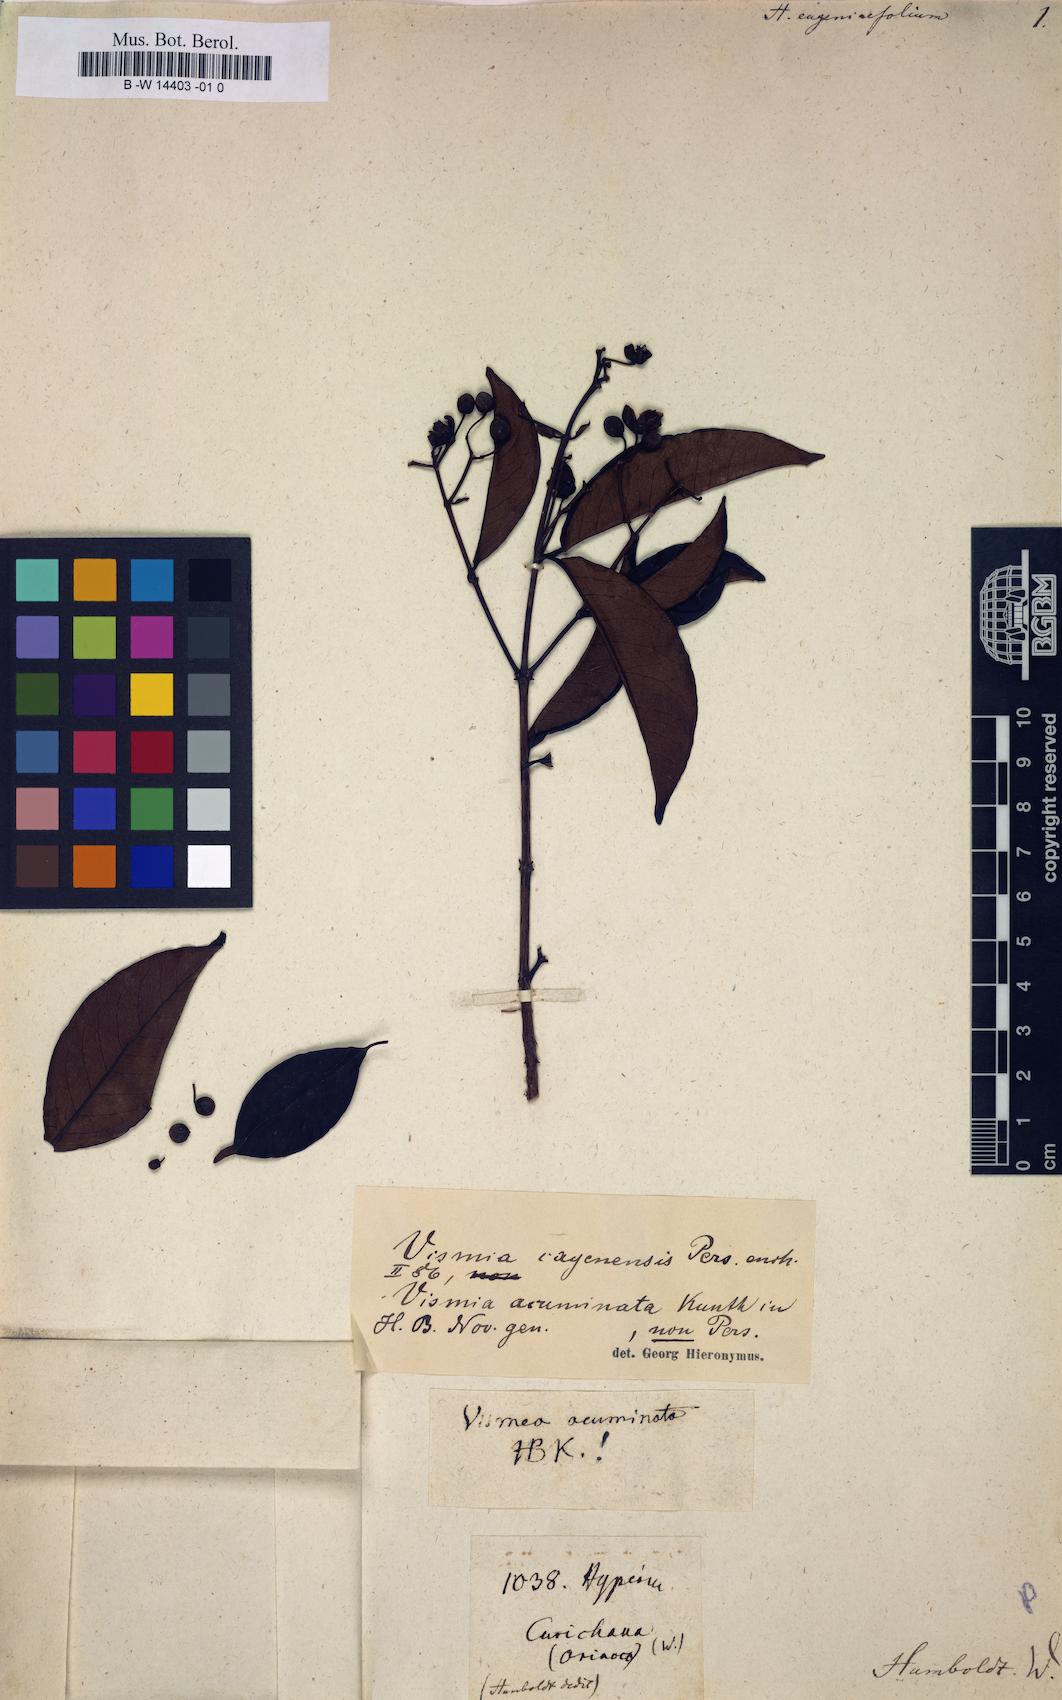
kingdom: Plantae
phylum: Tracheophyta
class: Magnoliopsida
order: Malpighiales
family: Hypericaceae
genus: Vismia
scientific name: Vismia guianensis
